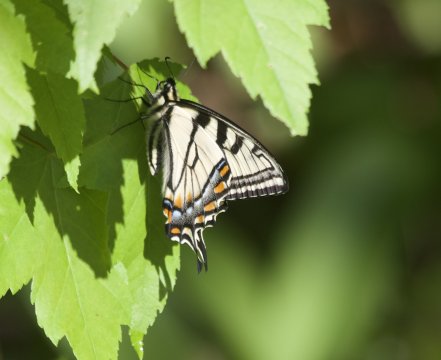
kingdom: Animalia
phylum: Arthropoda
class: Insecta
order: Lepidoptera
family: Papilionidae
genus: Pterourus
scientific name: Pterourus canadensis
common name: Canadian Tiger Swallowtail
